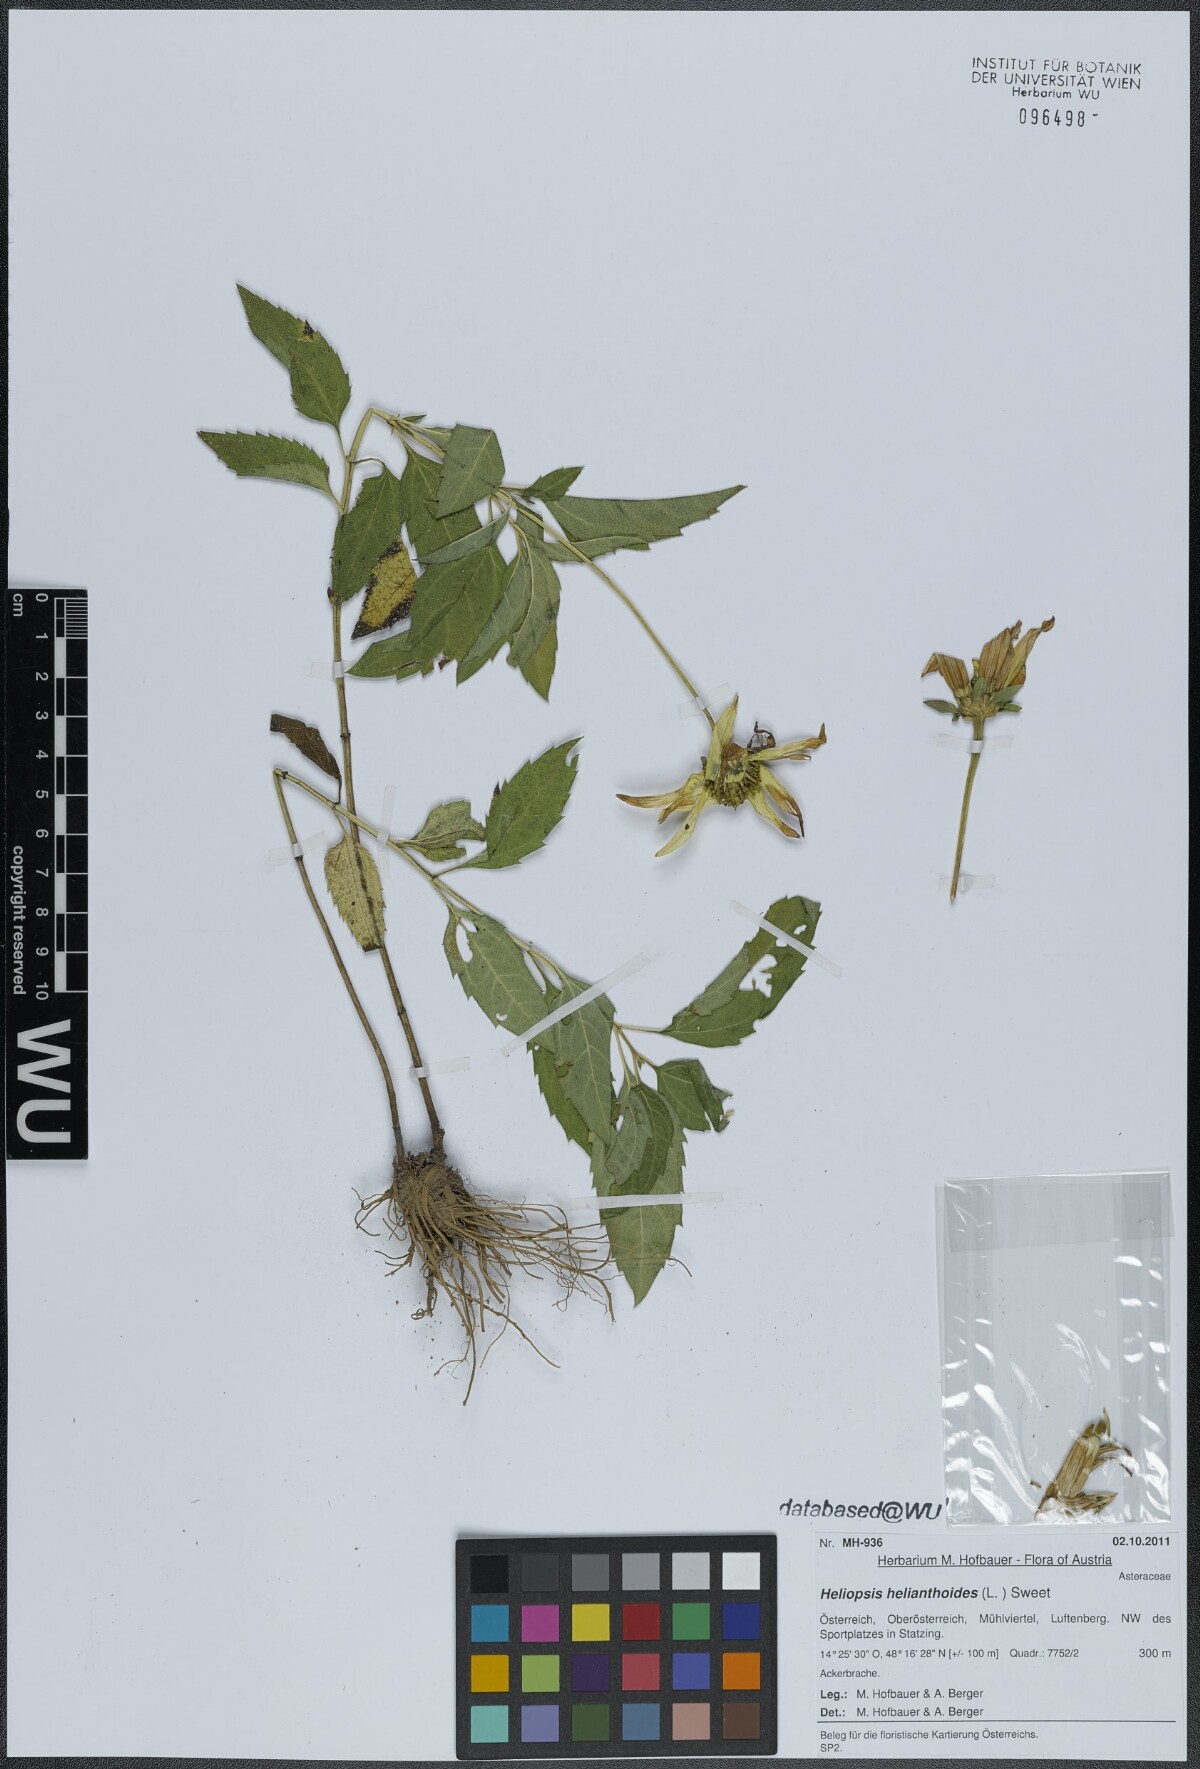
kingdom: Plantae
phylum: Tracheophyta
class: Magnoliopsida
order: Asterales
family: Asteraceae
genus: Heliopsis
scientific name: Heliopsis helianthoides
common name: False sunflower
